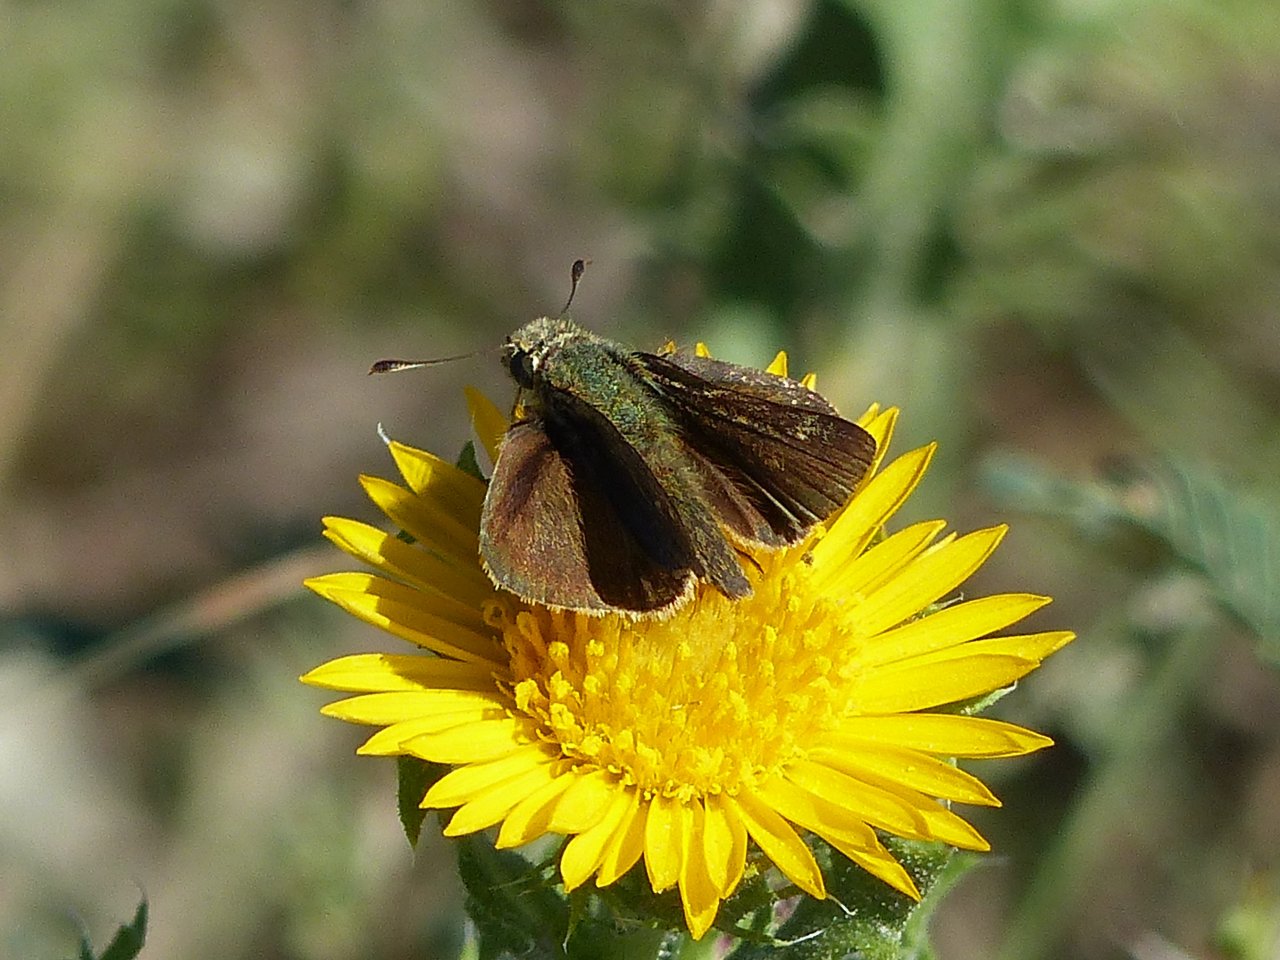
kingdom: Animalia
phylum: Arthropoda
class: Insecta
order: Lepidoptera
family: Hesperiidae
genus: Vidius
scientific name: Vidius perigenes
